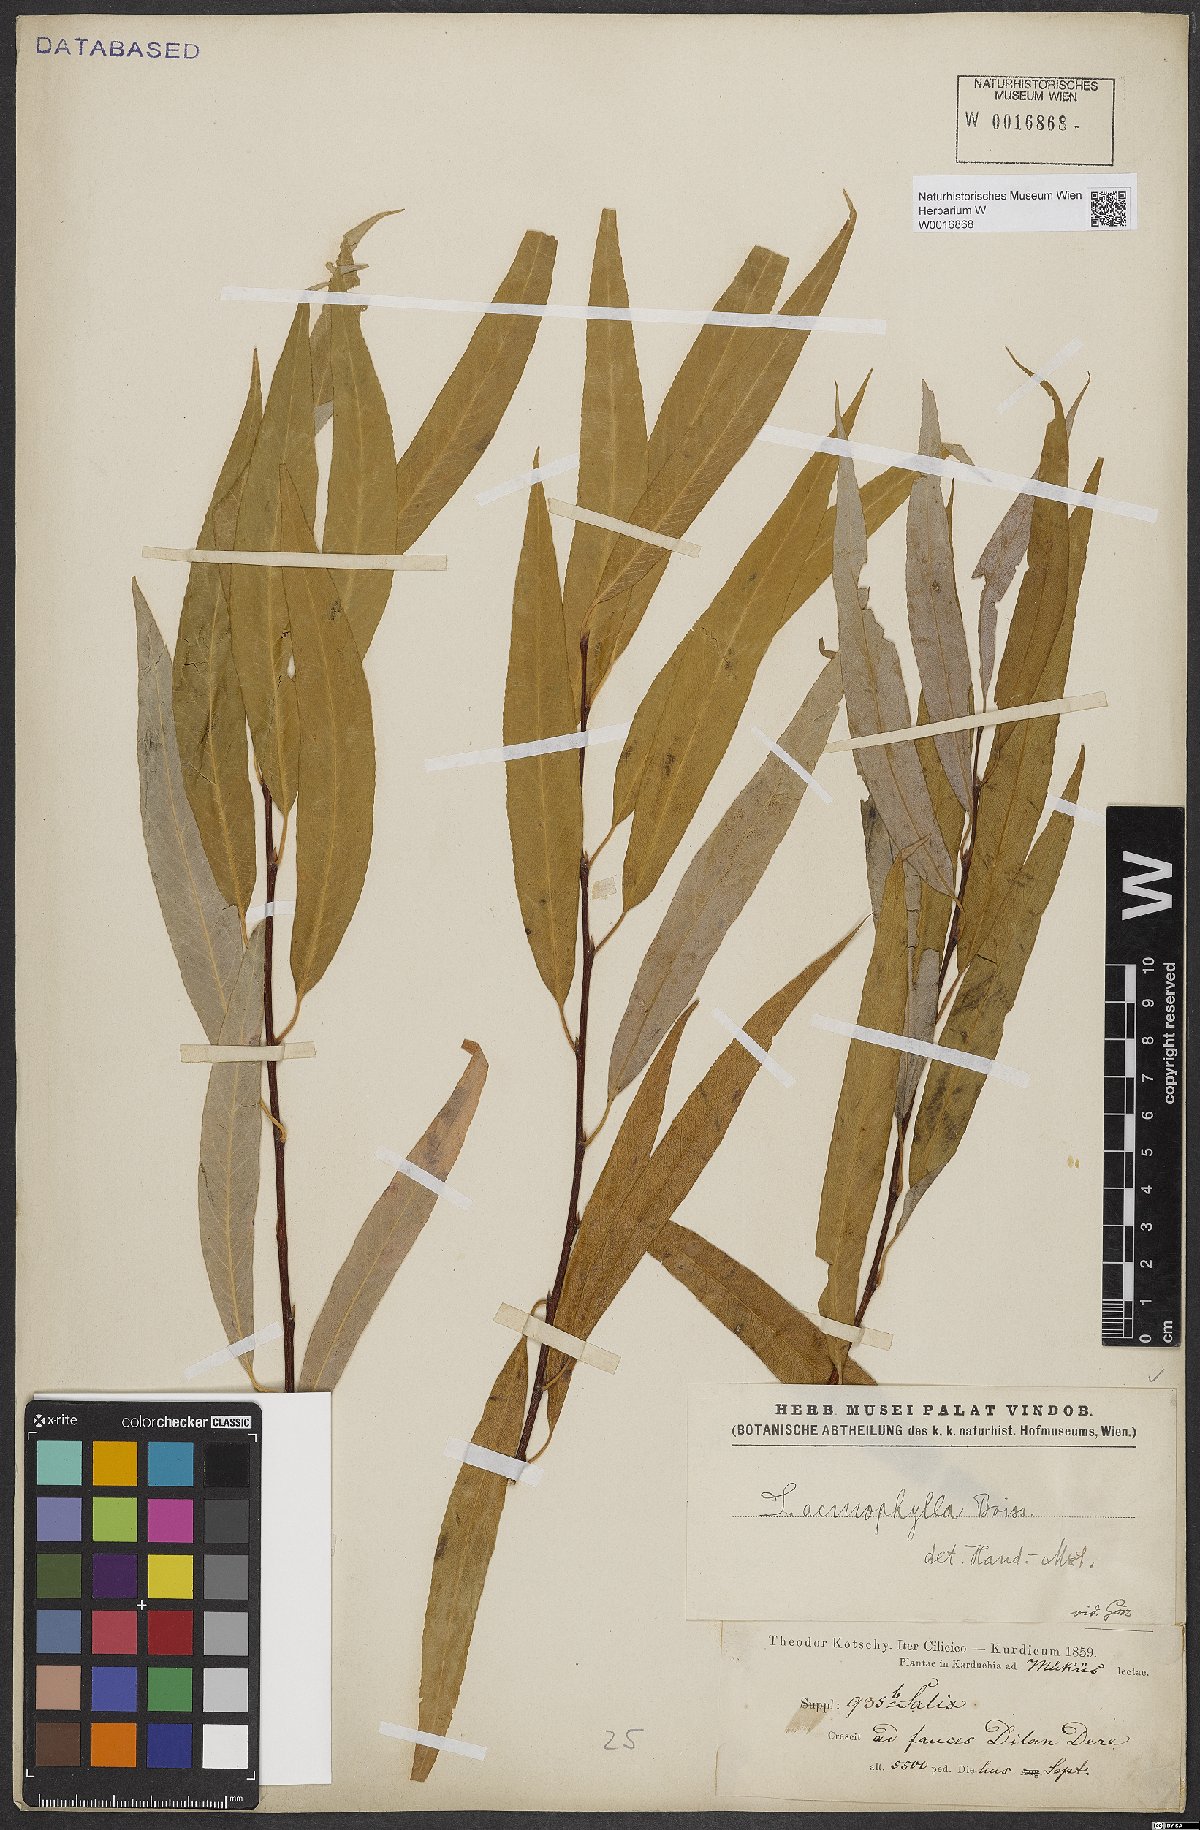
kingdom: Plantae
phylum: Tracheophyta
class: Magnoliopsida
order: Malpighiales
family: Salicaceae
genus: Salix
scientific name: Salix acmophylla
